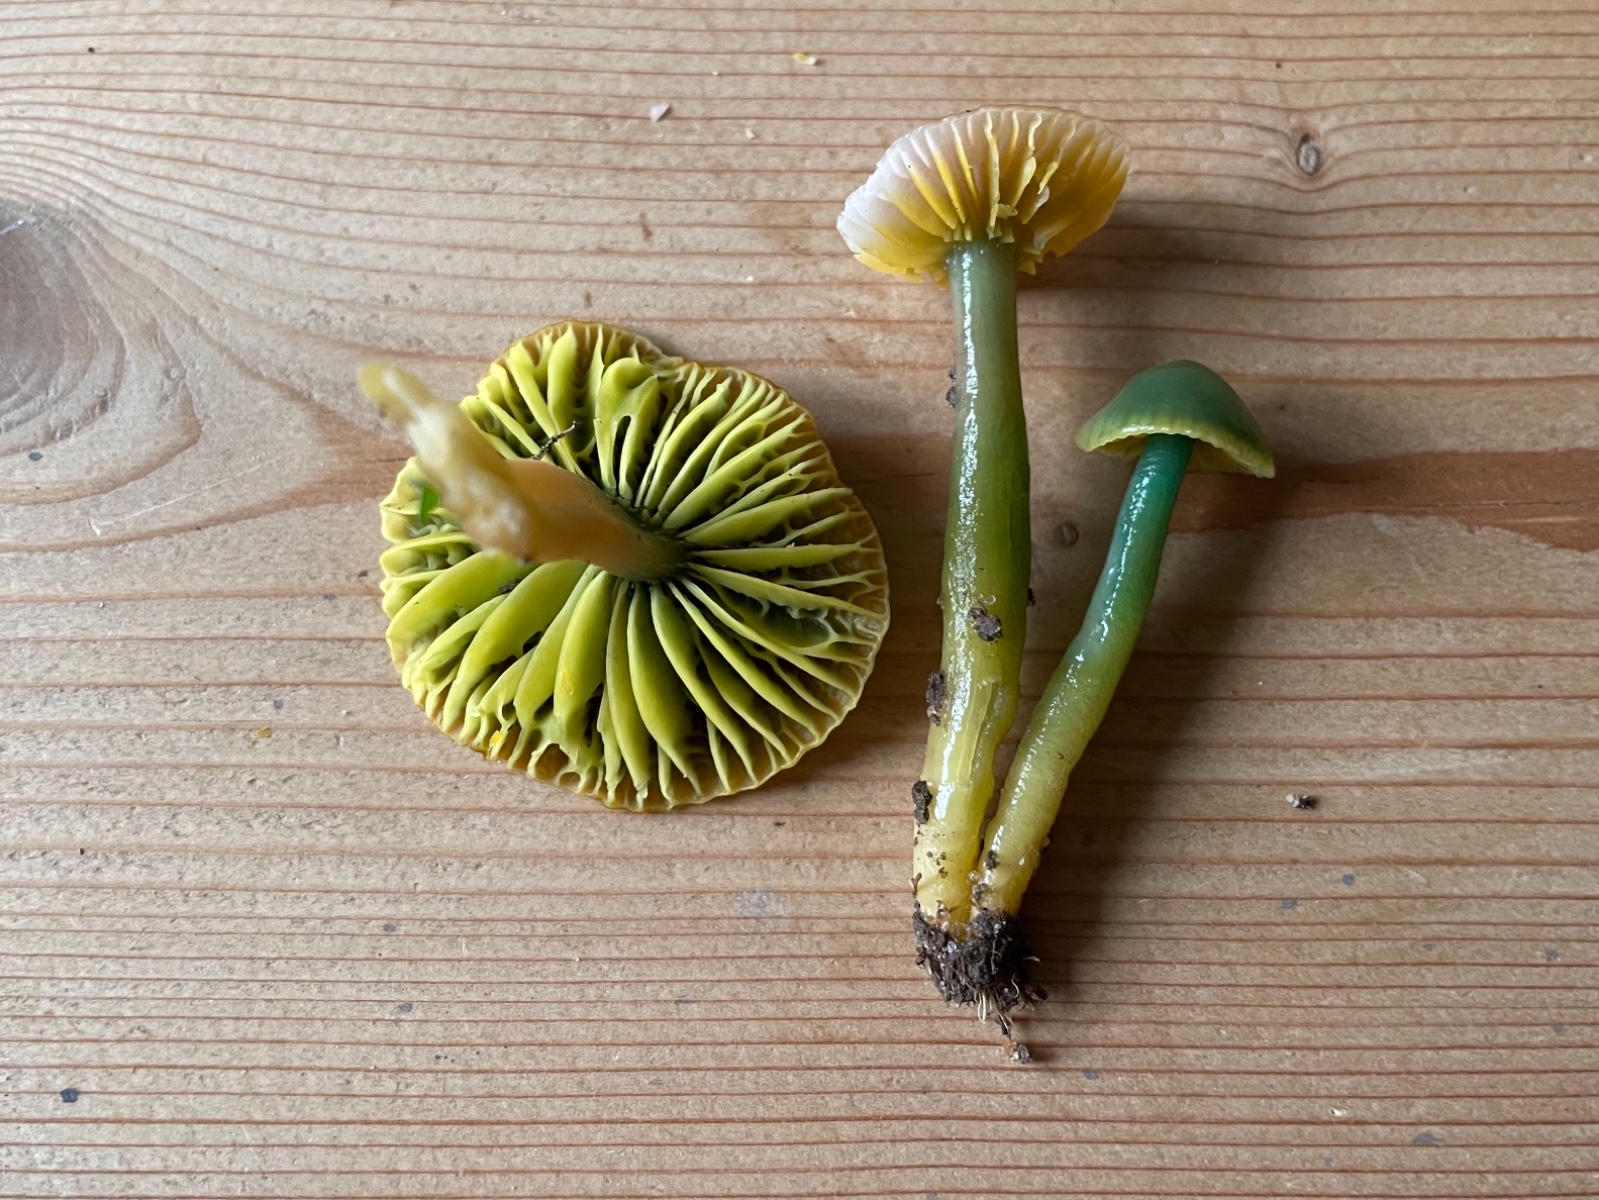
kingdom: Fungi
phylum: Basidiomycota
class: Agaricomycetes
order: Agaricales
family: Hygrophoraceae
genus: Gliophorus
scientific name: Gliophorus psittacinus
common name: papegøje-vokshat
